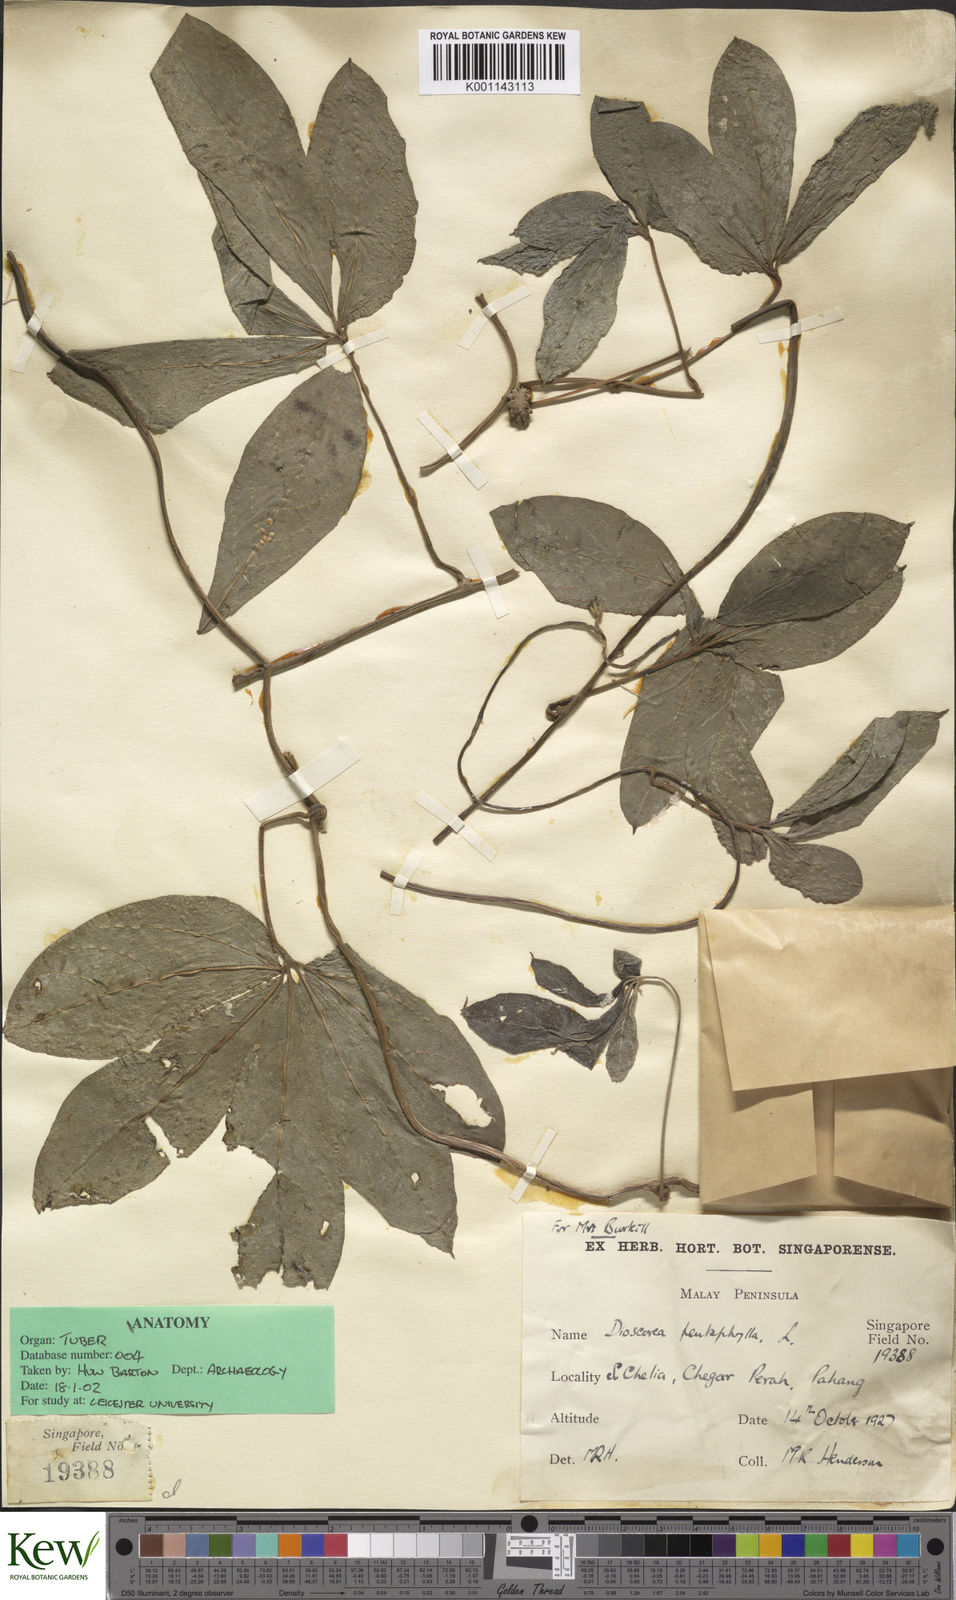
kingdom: Plantae
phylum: Tracheophyta
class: Liliopsida
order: Dioscoreales
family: Dioscoreaceae
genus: Dioscorea
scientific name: Dioscorea pentaphylla
